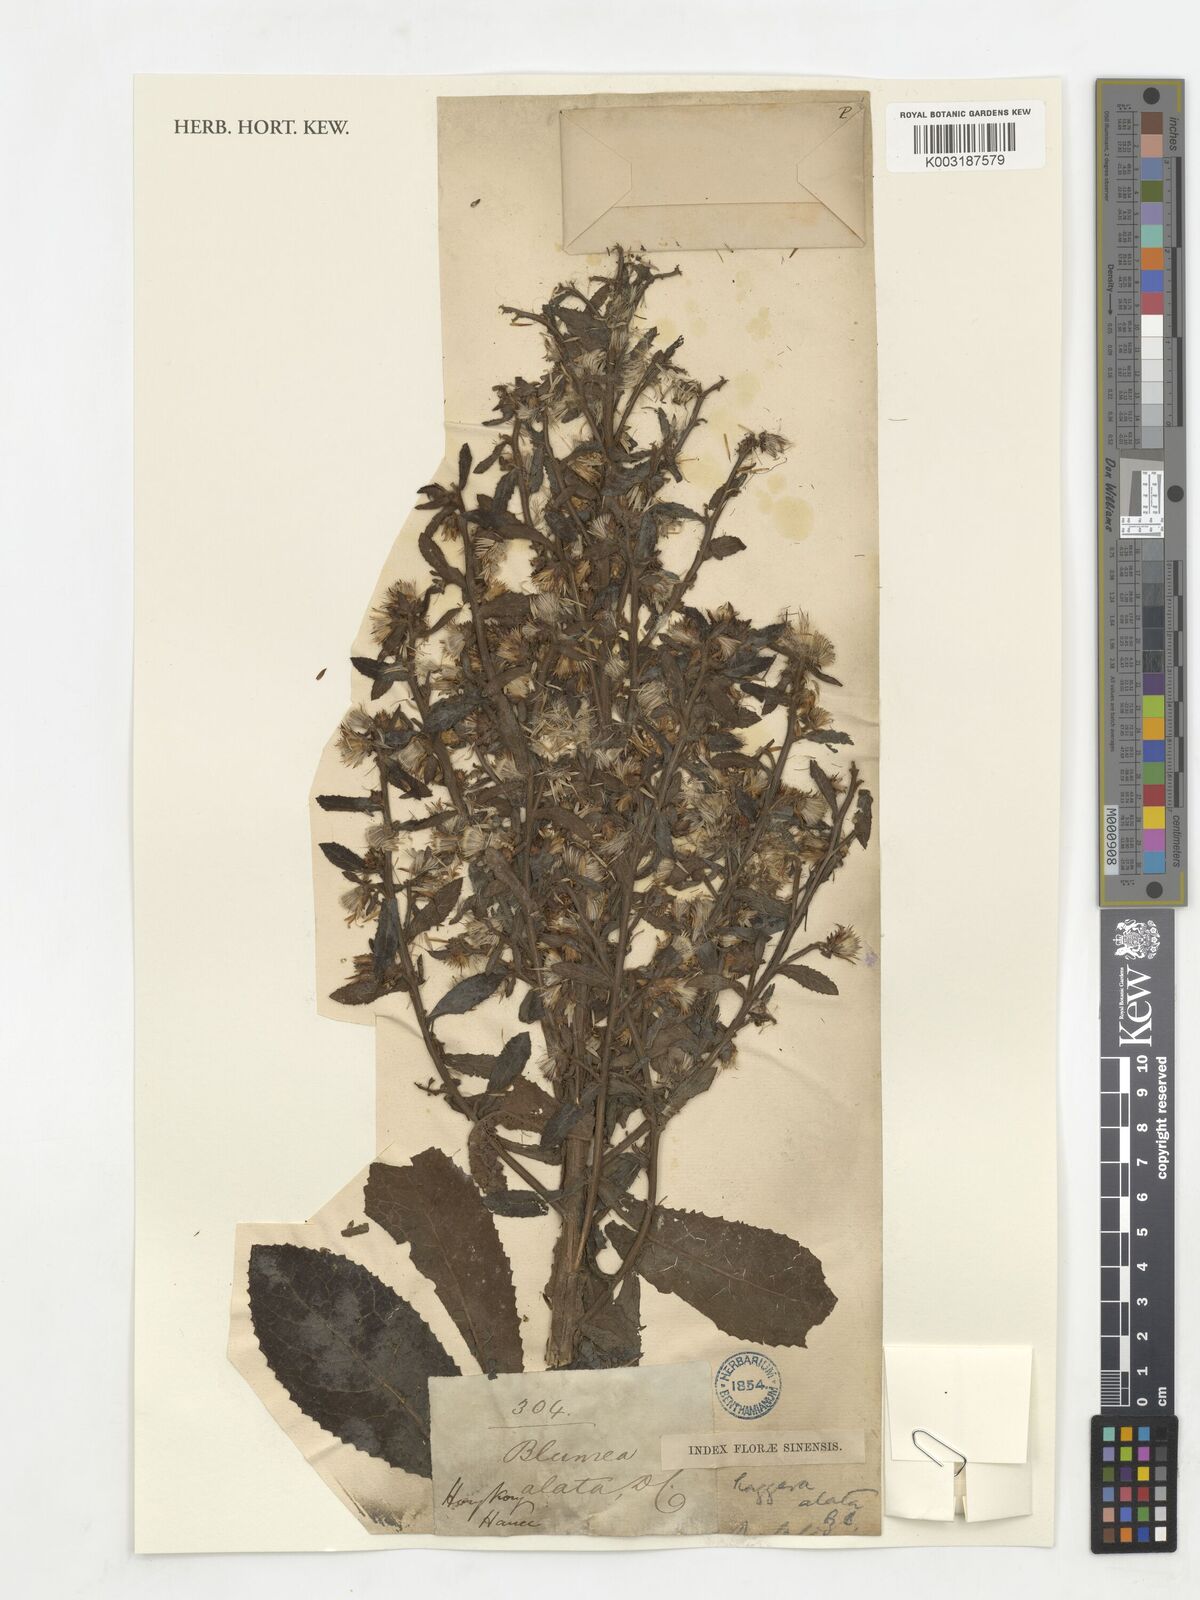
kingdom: Plantae
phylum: Tracheophyta
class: Magnoliopsida
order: Asterales
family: Asteraceae
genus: Laggera
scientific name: Laggera alata
